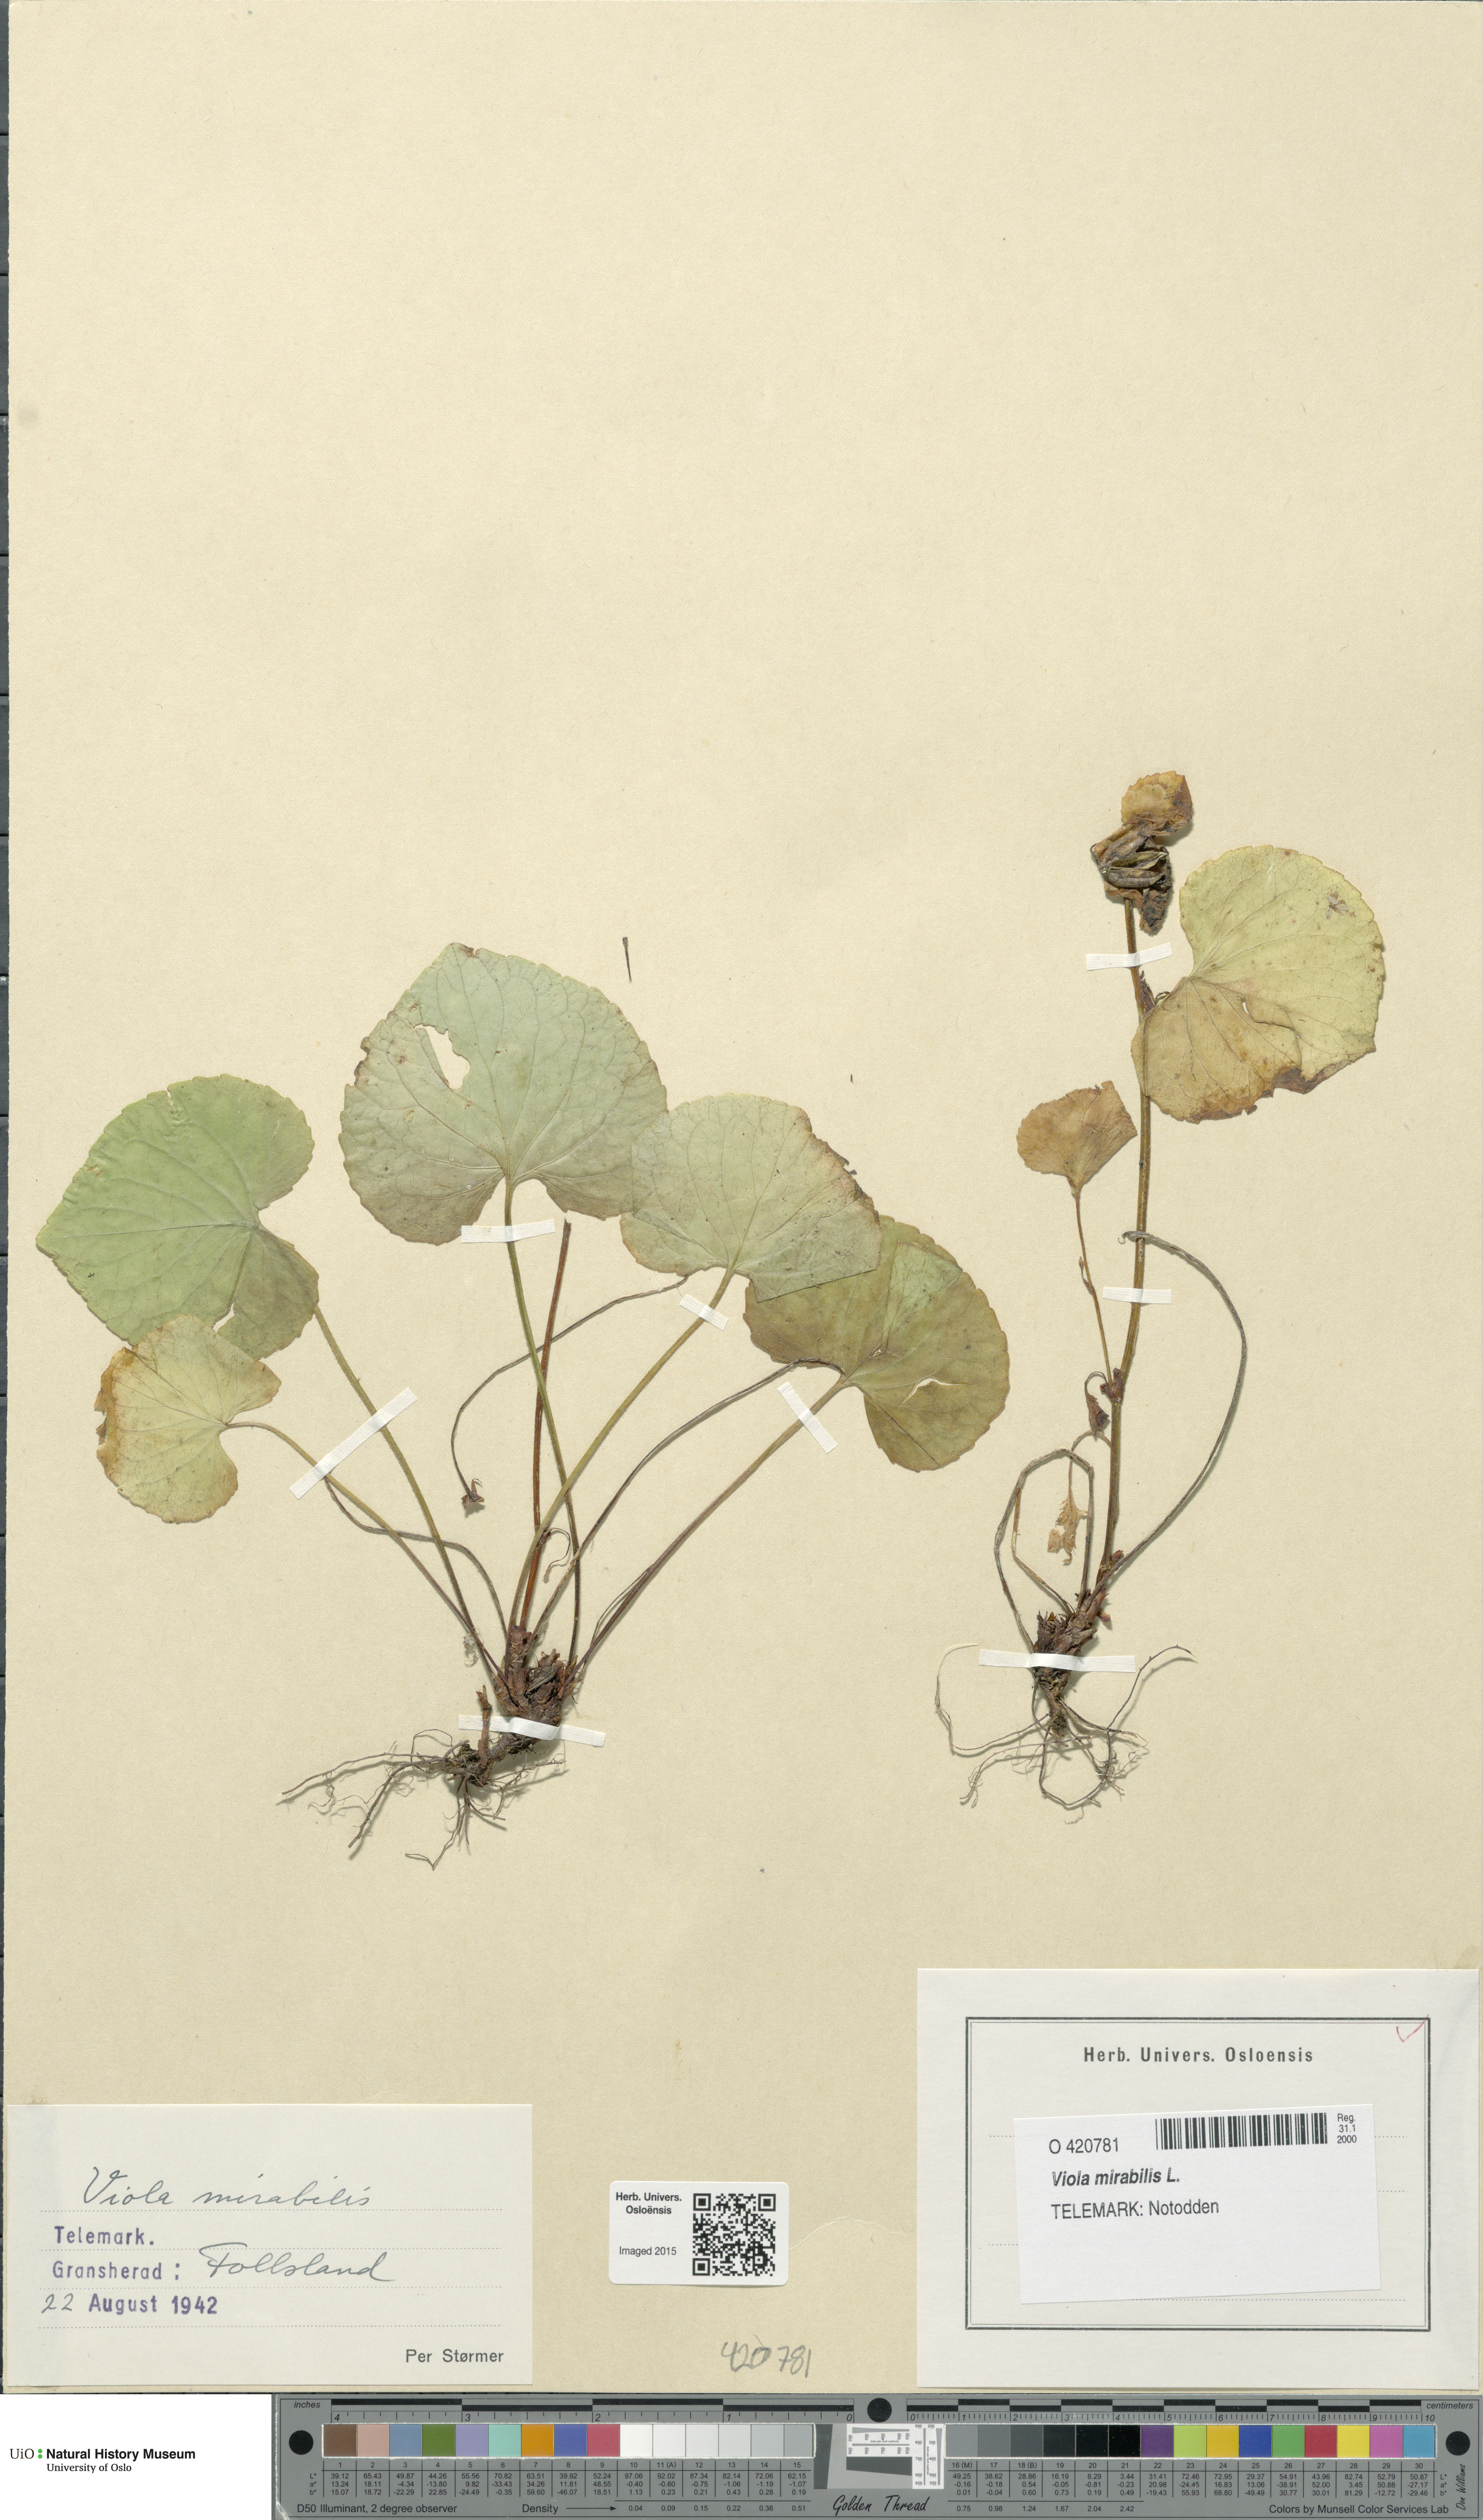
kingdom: Plantae
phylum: Tracheophyta
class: Magnoliopsida
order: Malpighiales
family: Violaceae
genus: Viola
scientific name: Viola mirabilis
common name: Wonder violet
